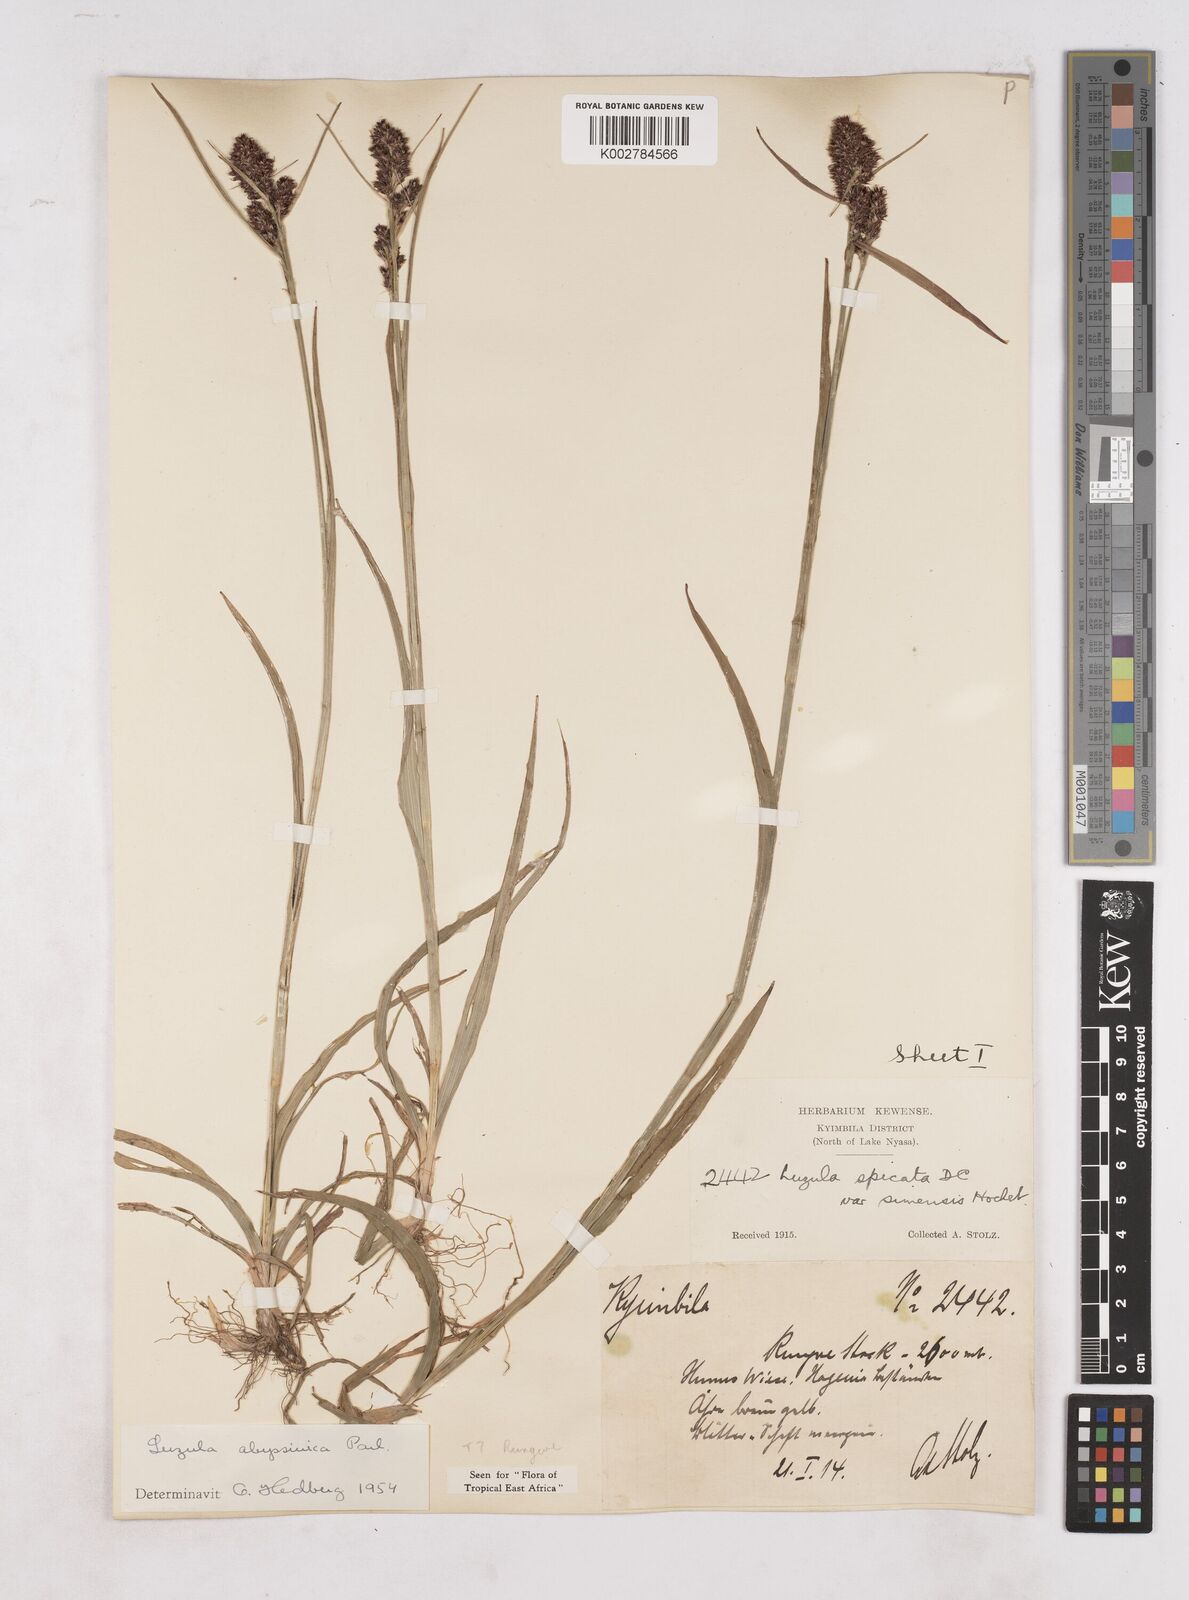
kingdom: Plantae
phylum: Tracheophyta
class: Liliopsida
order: Poales
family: Juncaceae
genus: Luzula
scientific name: Luzula abyssinica
